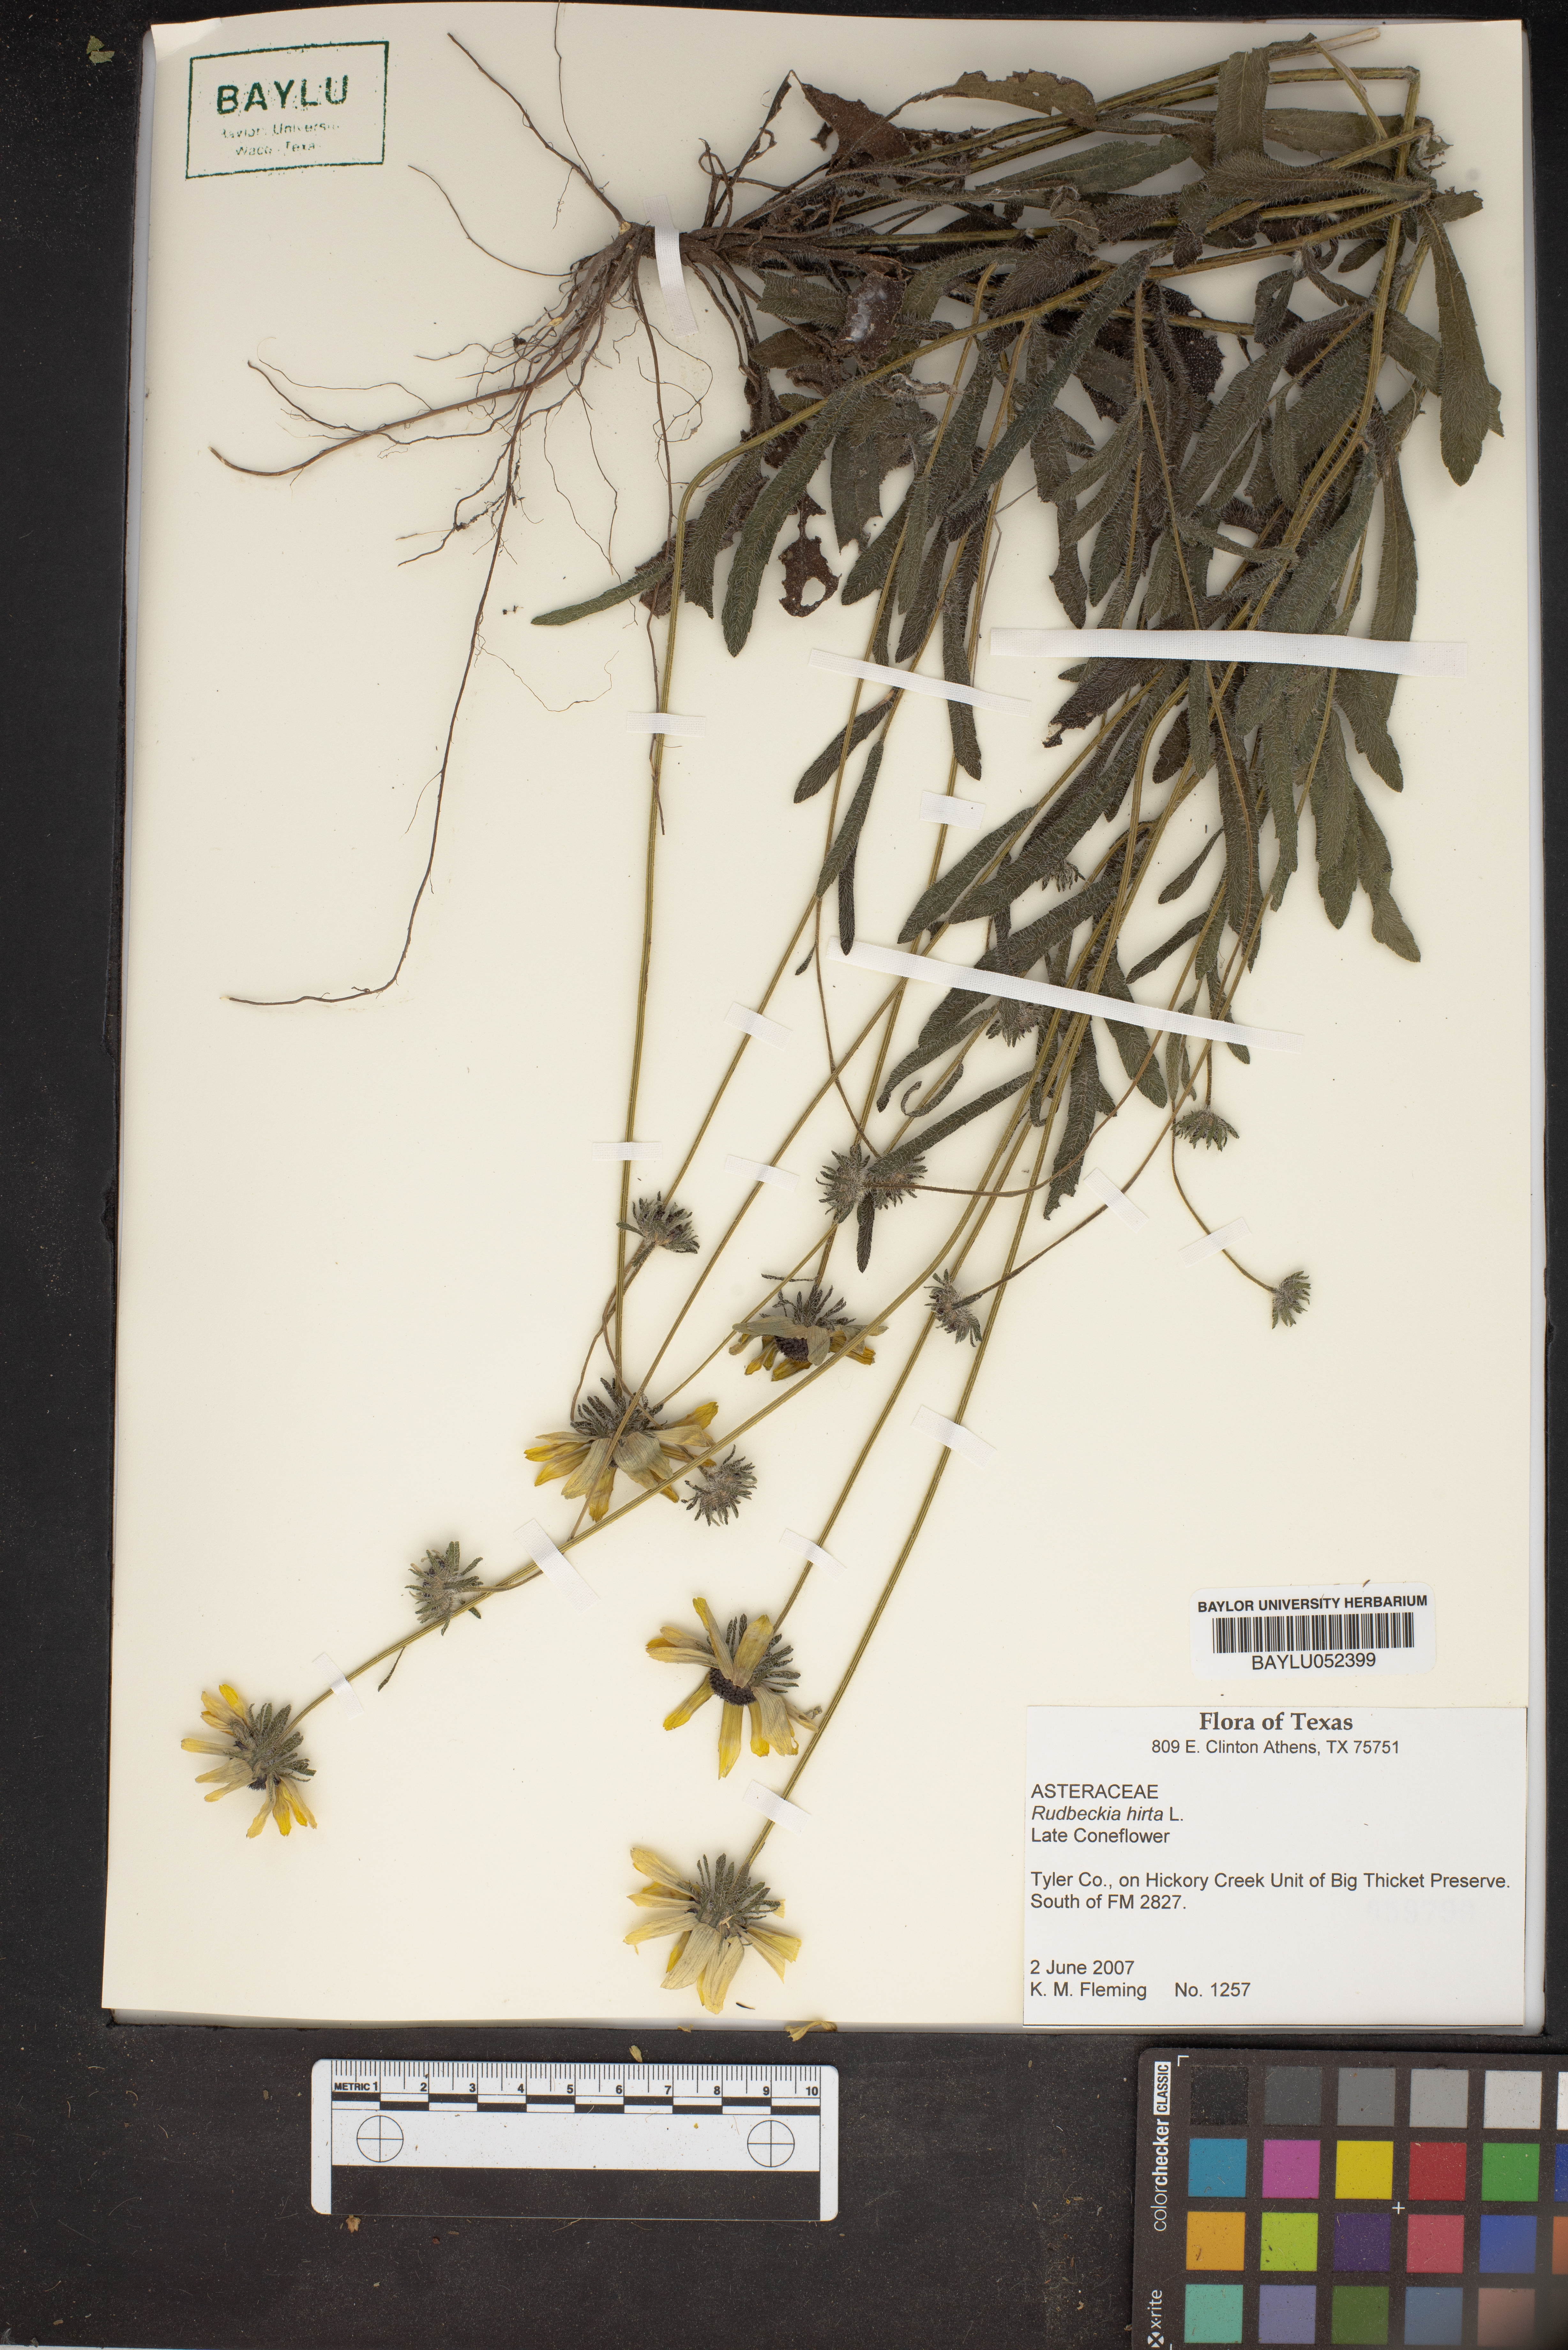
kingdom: Plantae
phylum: Tracheophyta
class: Magnoliopsida
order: Asterales
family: Asteraceae
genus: Rudbeckia
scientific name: Rudbeckia hirta
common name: Black-eyed-susan
